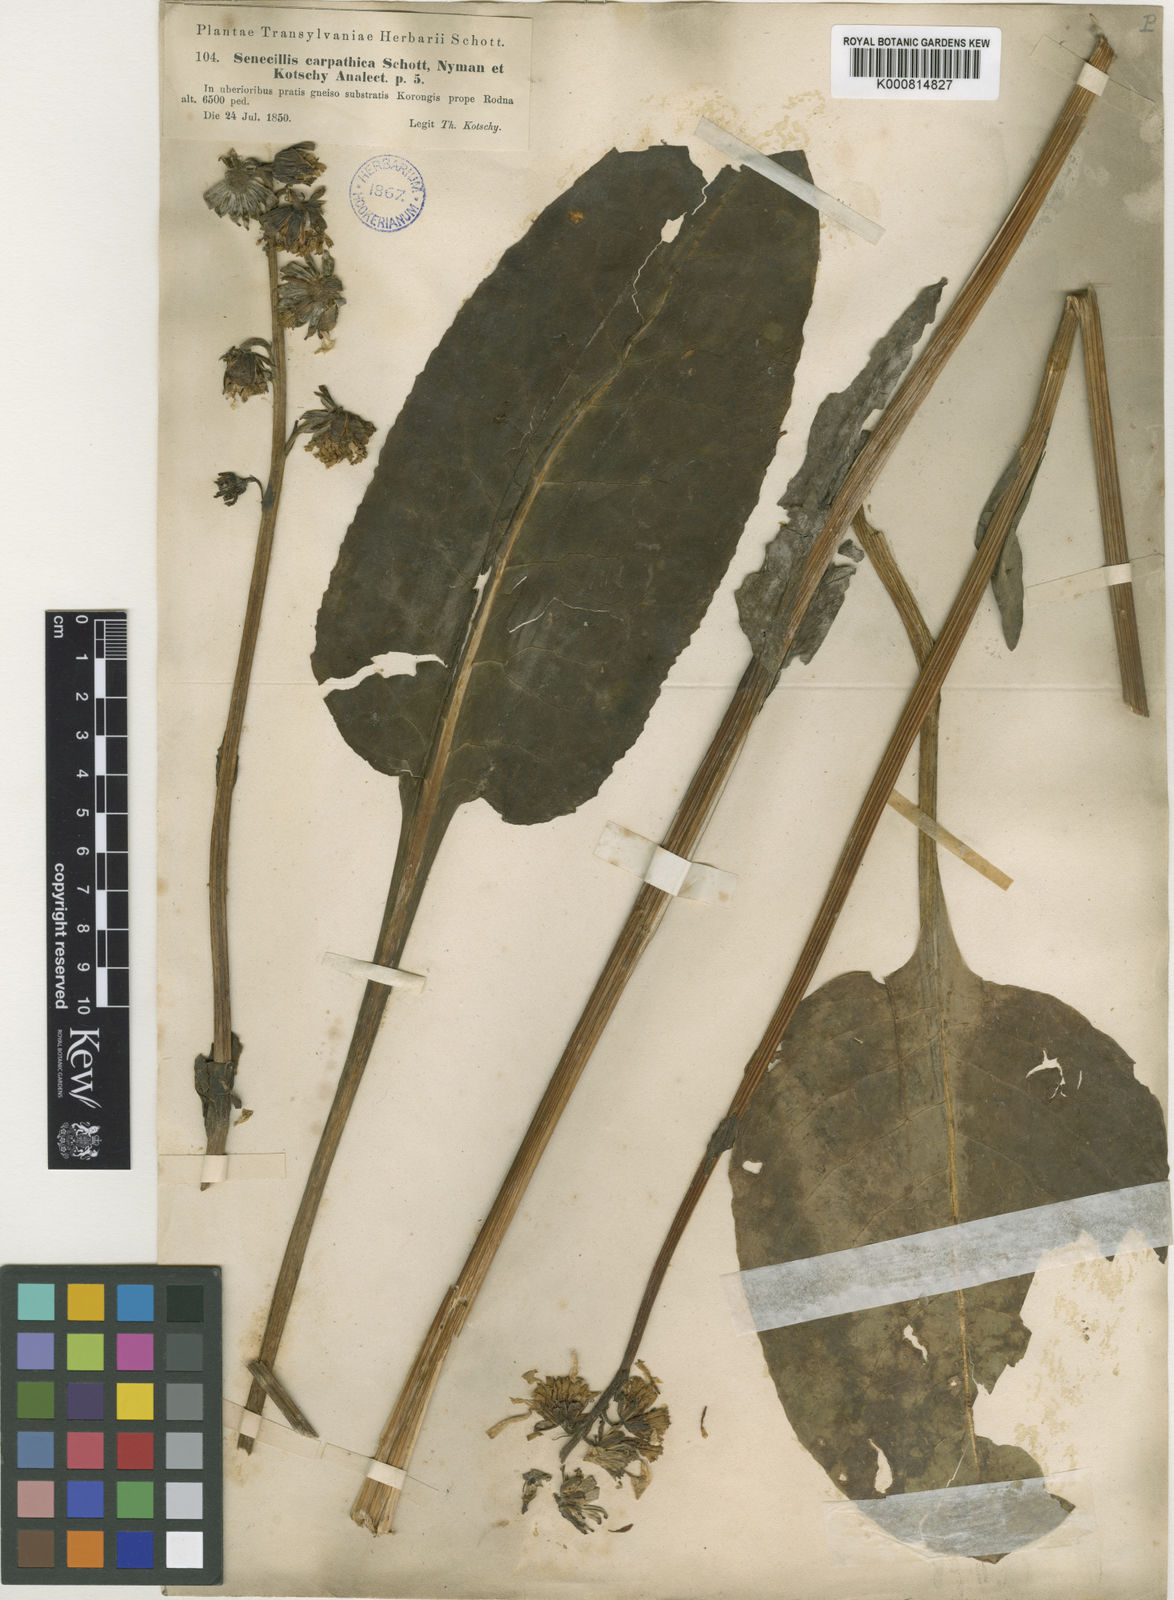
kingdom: Plantae
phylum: Tracheophyta
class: Magnoliopsida
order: Asterales
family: Asteraceae
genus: Ligularia
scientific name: Ligularia
